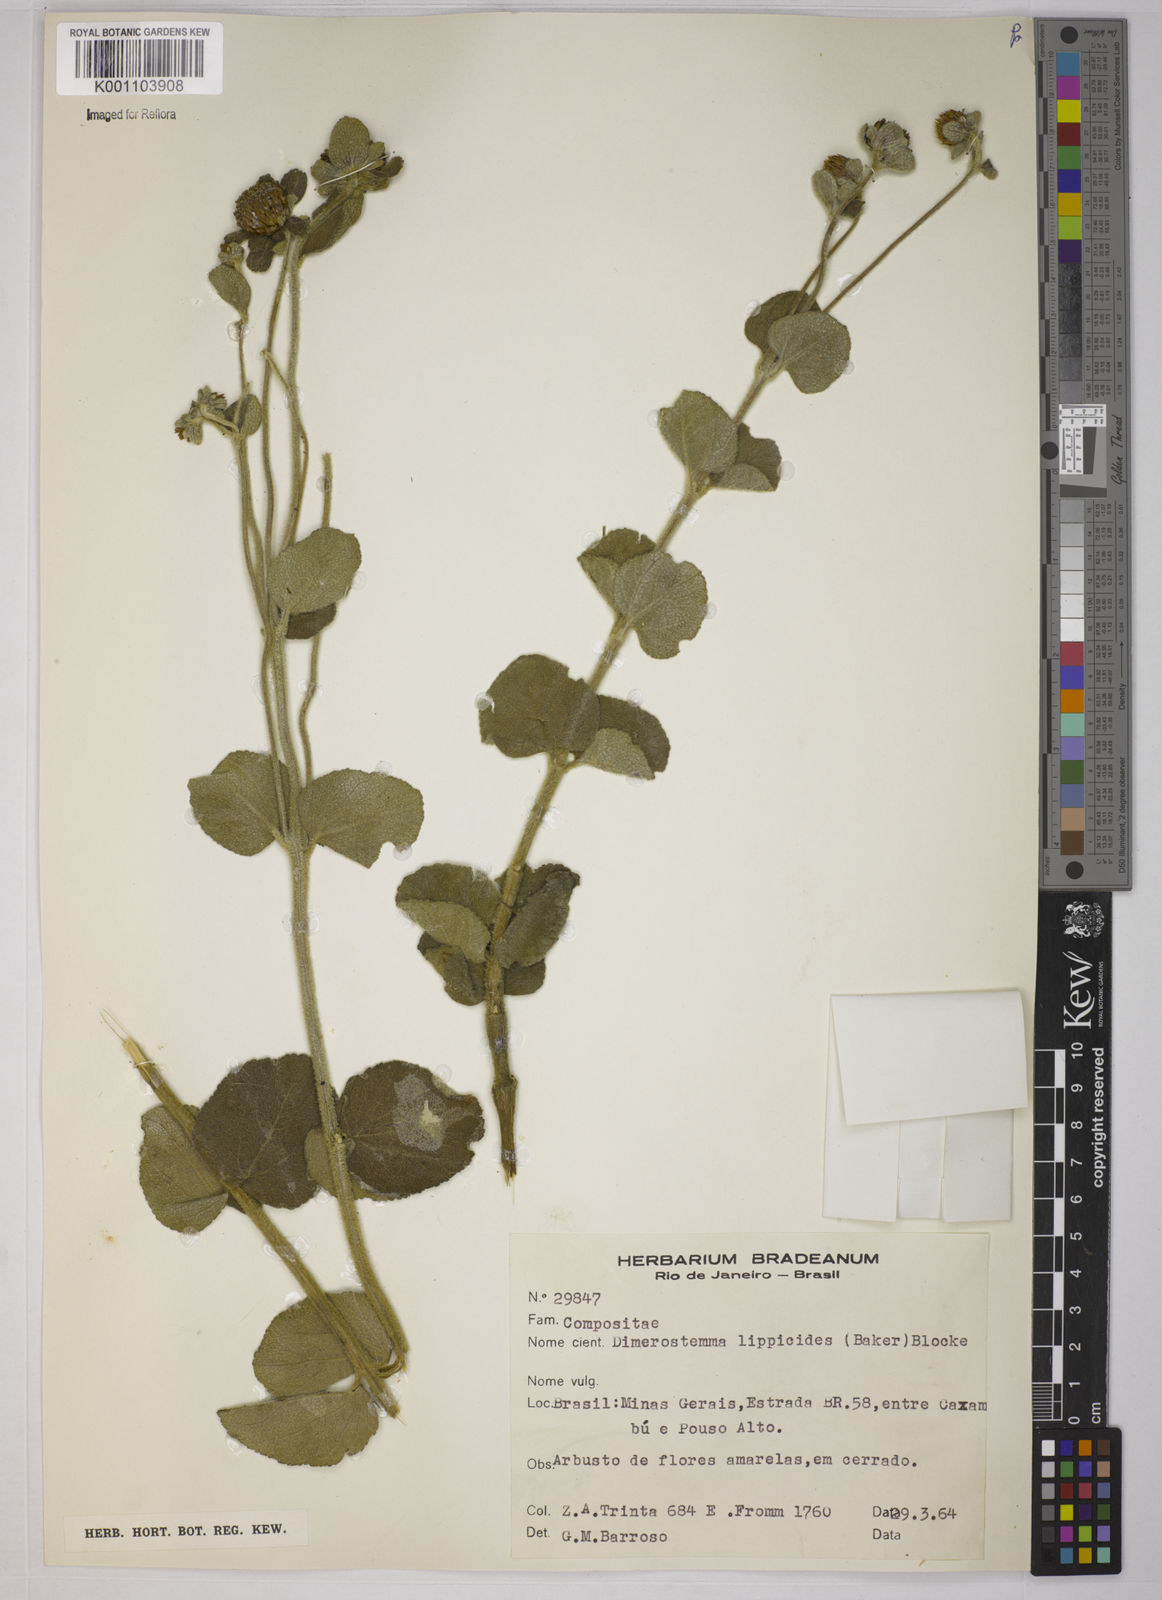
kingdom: Plantae
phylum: Tracheophyta
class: Magnoliopsida
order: Asterales
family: Asteraceae
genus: Dimerostemma
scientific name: Dimerostemma brasilianum
